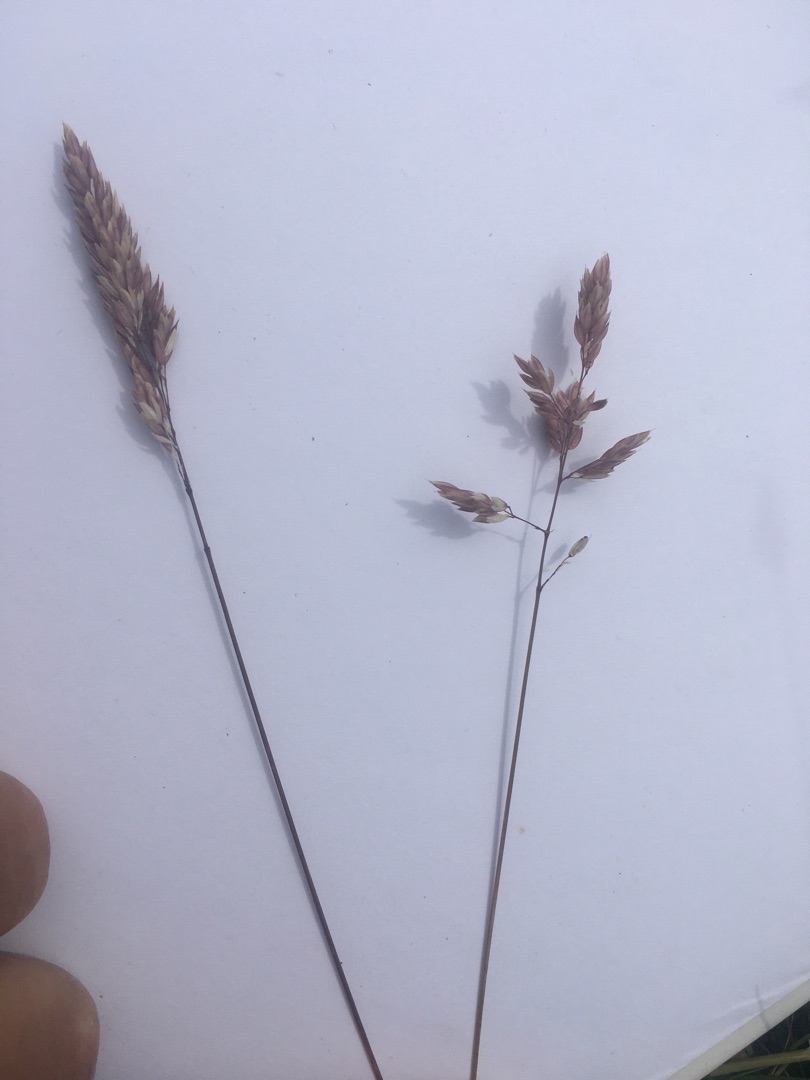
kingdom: Plantae
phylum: Tracheophyta
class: Liliopsida
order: Poales
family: Poaceae
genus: Holcus
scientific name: Holcus lanatus
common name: Fløjlsgræs
